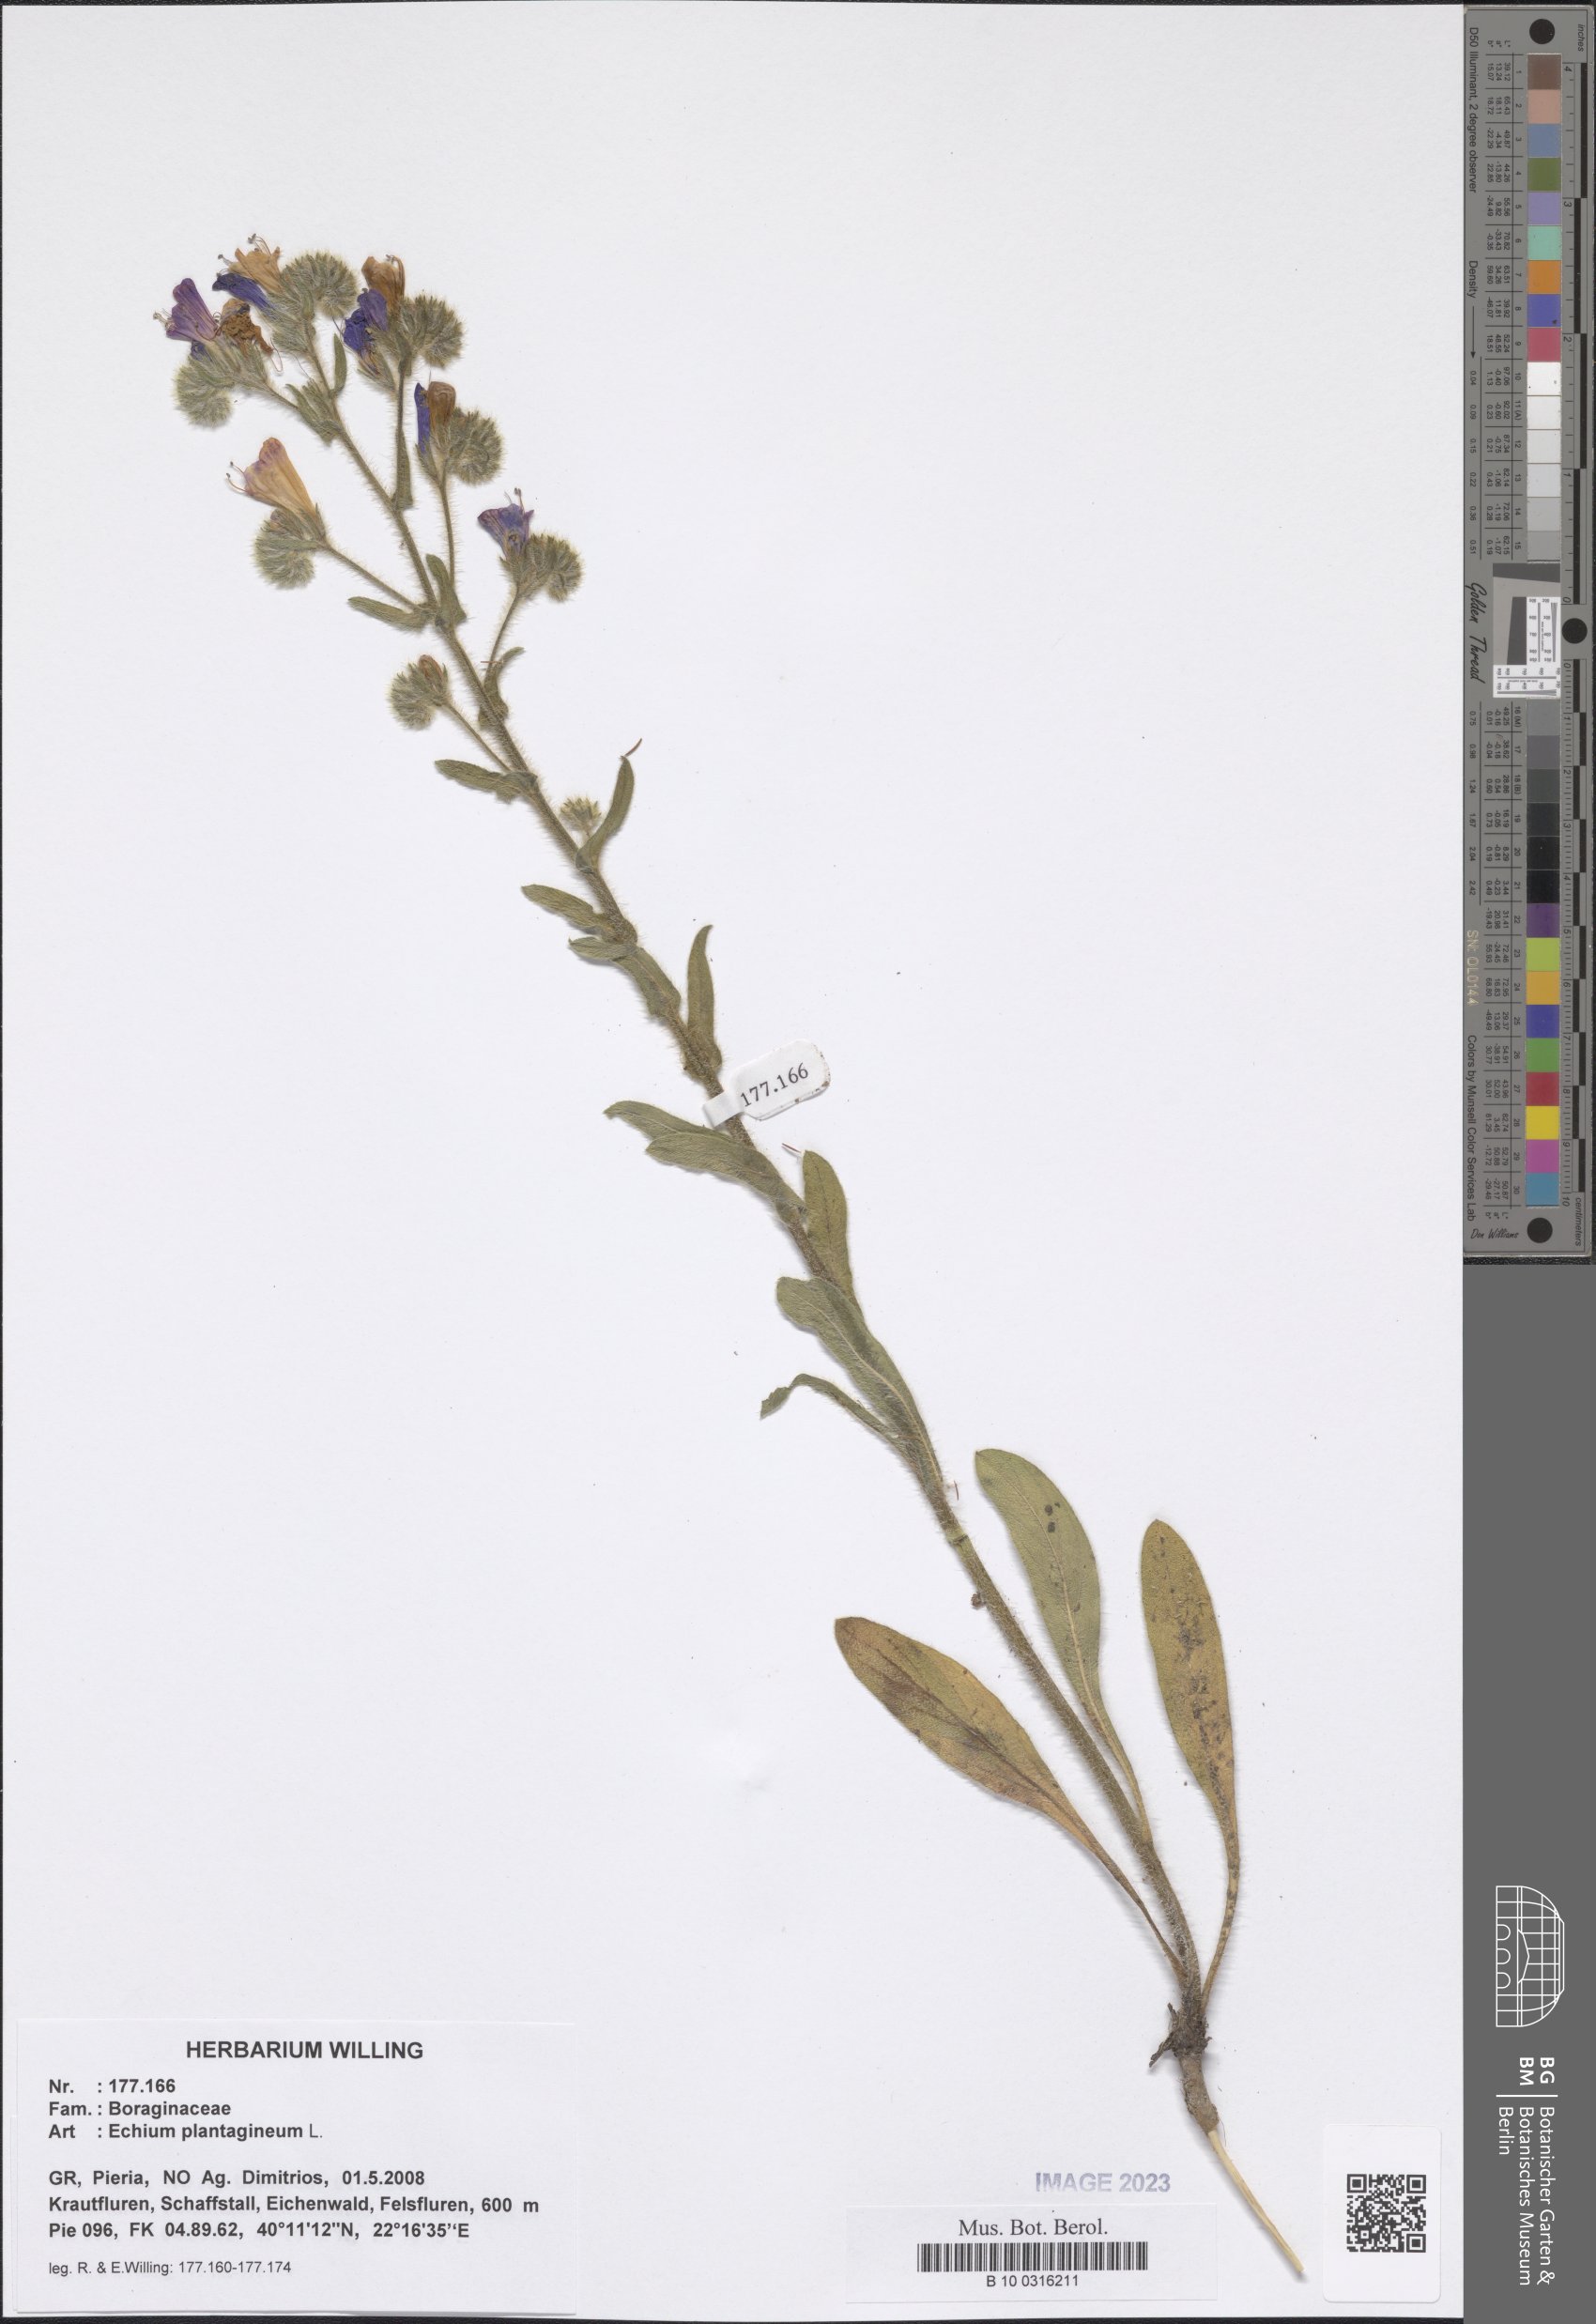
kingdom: Plantae
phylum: Tracheophyta
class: Magnoliopsida
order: Boraginales
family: Boraginaceae
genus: Echium
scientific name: Echium plantagineum
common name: Purple viper's-bugloss
